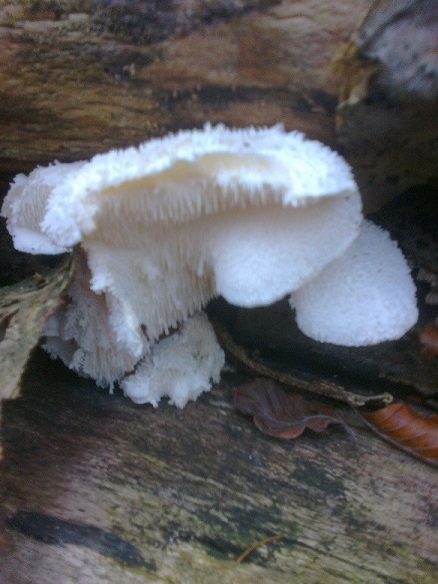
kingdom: Fungi
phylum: Basidiomycota
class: Agaricomycetes
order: Russulales
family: Hericiaceae
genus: Hericium
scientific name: Hericium cirrhatum
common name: børstepigsvamp
